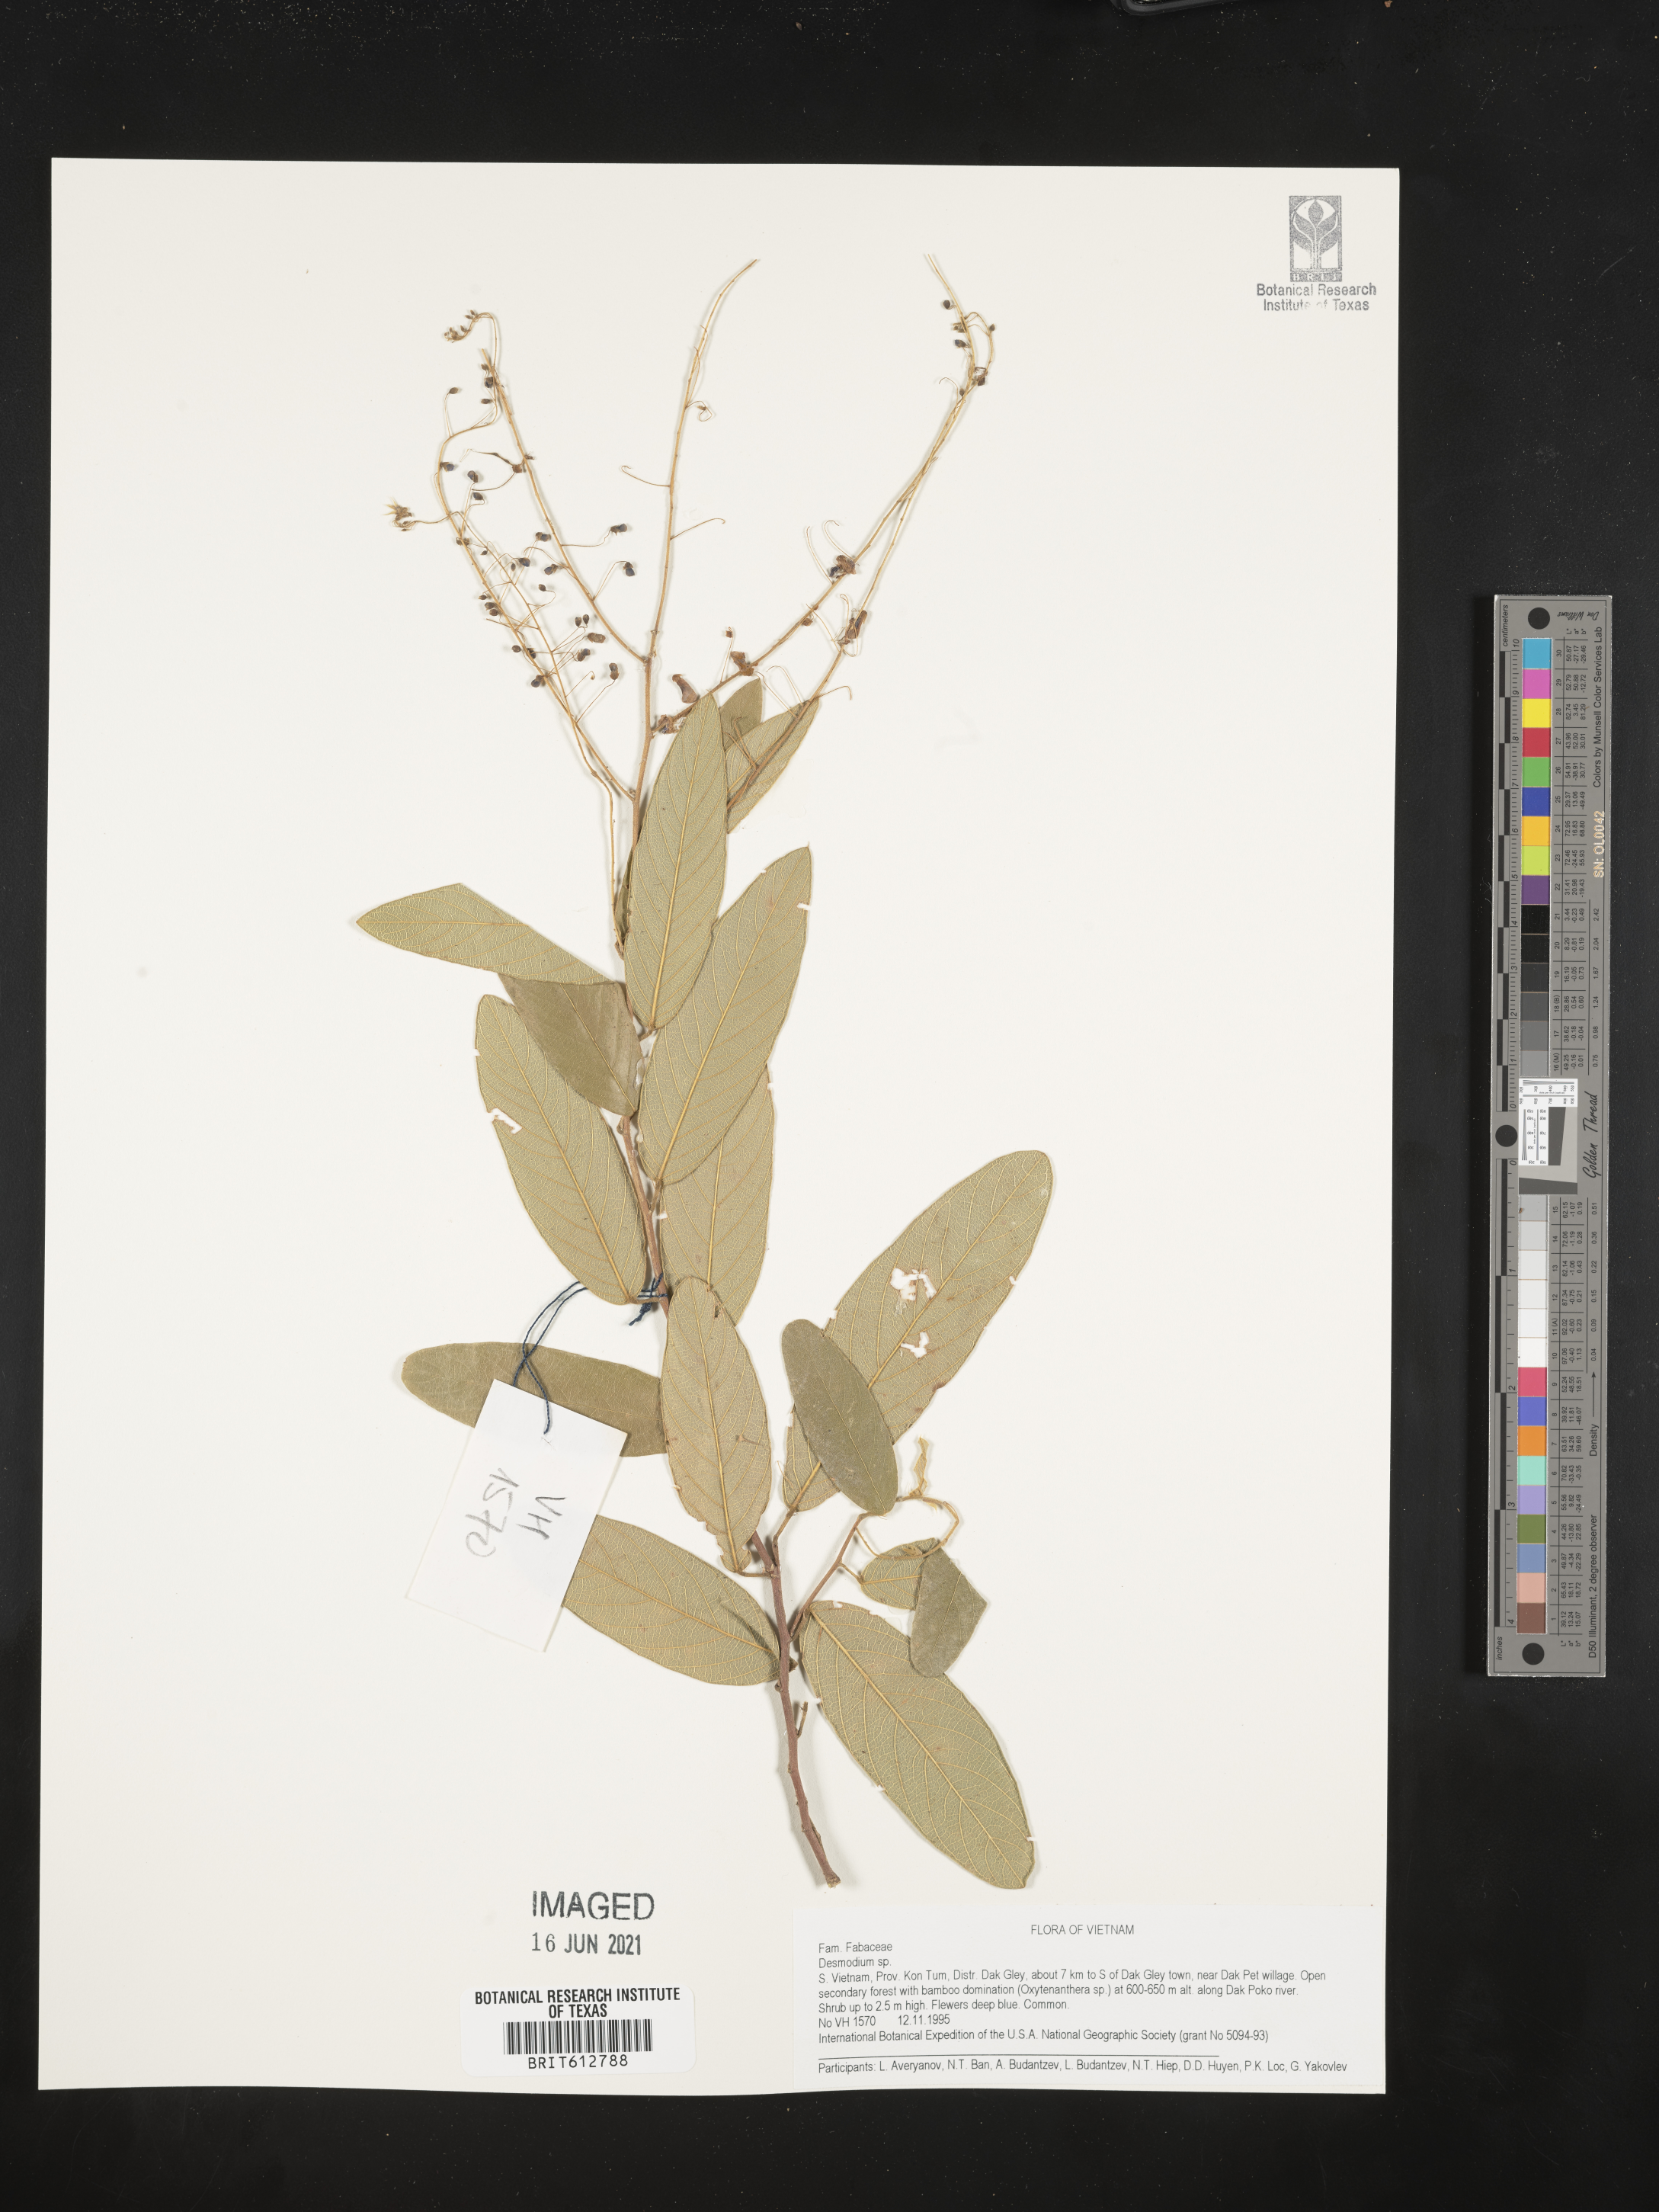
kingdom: Plantae
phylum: Tracheophyta
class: Magnoliopsida
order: Fabales
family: Fabaceae
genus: Desmodium
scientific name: Desmodium
